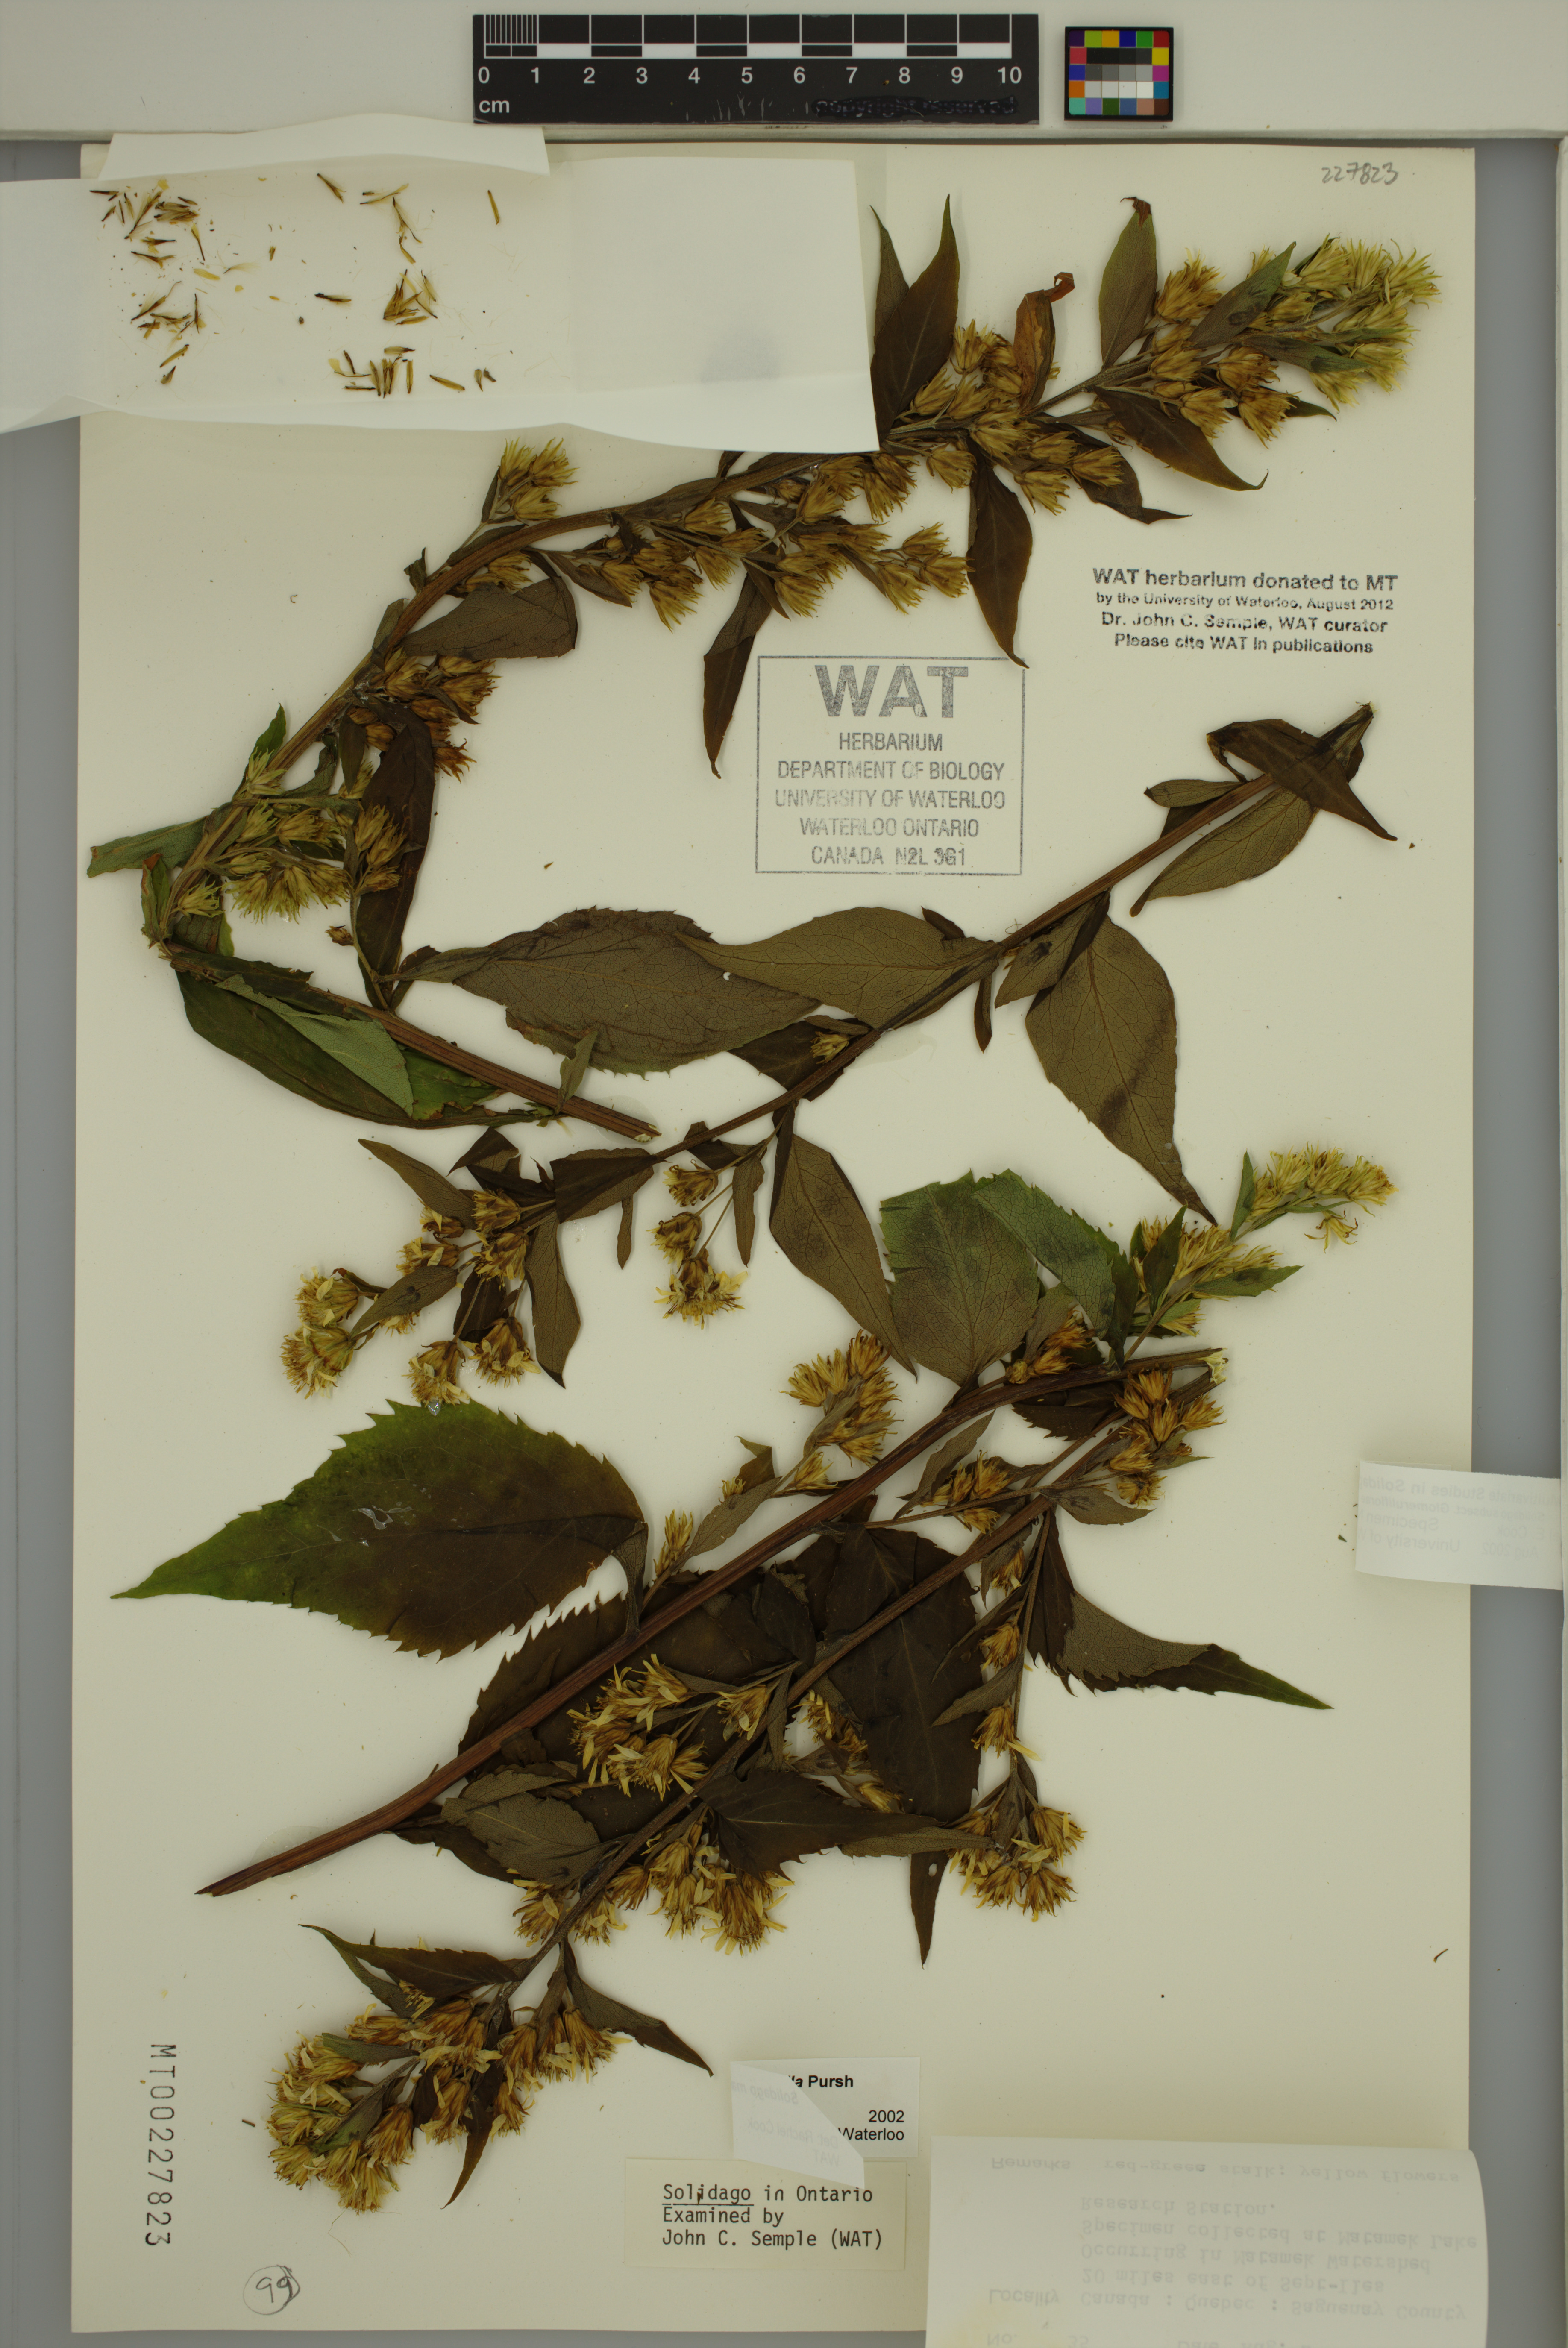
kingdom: Plantae
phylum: Tracheophyta
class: Magnoliopsida
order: Asterales
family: Asteraceae
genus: Solidago
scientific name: Solidago macrophylla
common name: Large-leaved goldenrod
